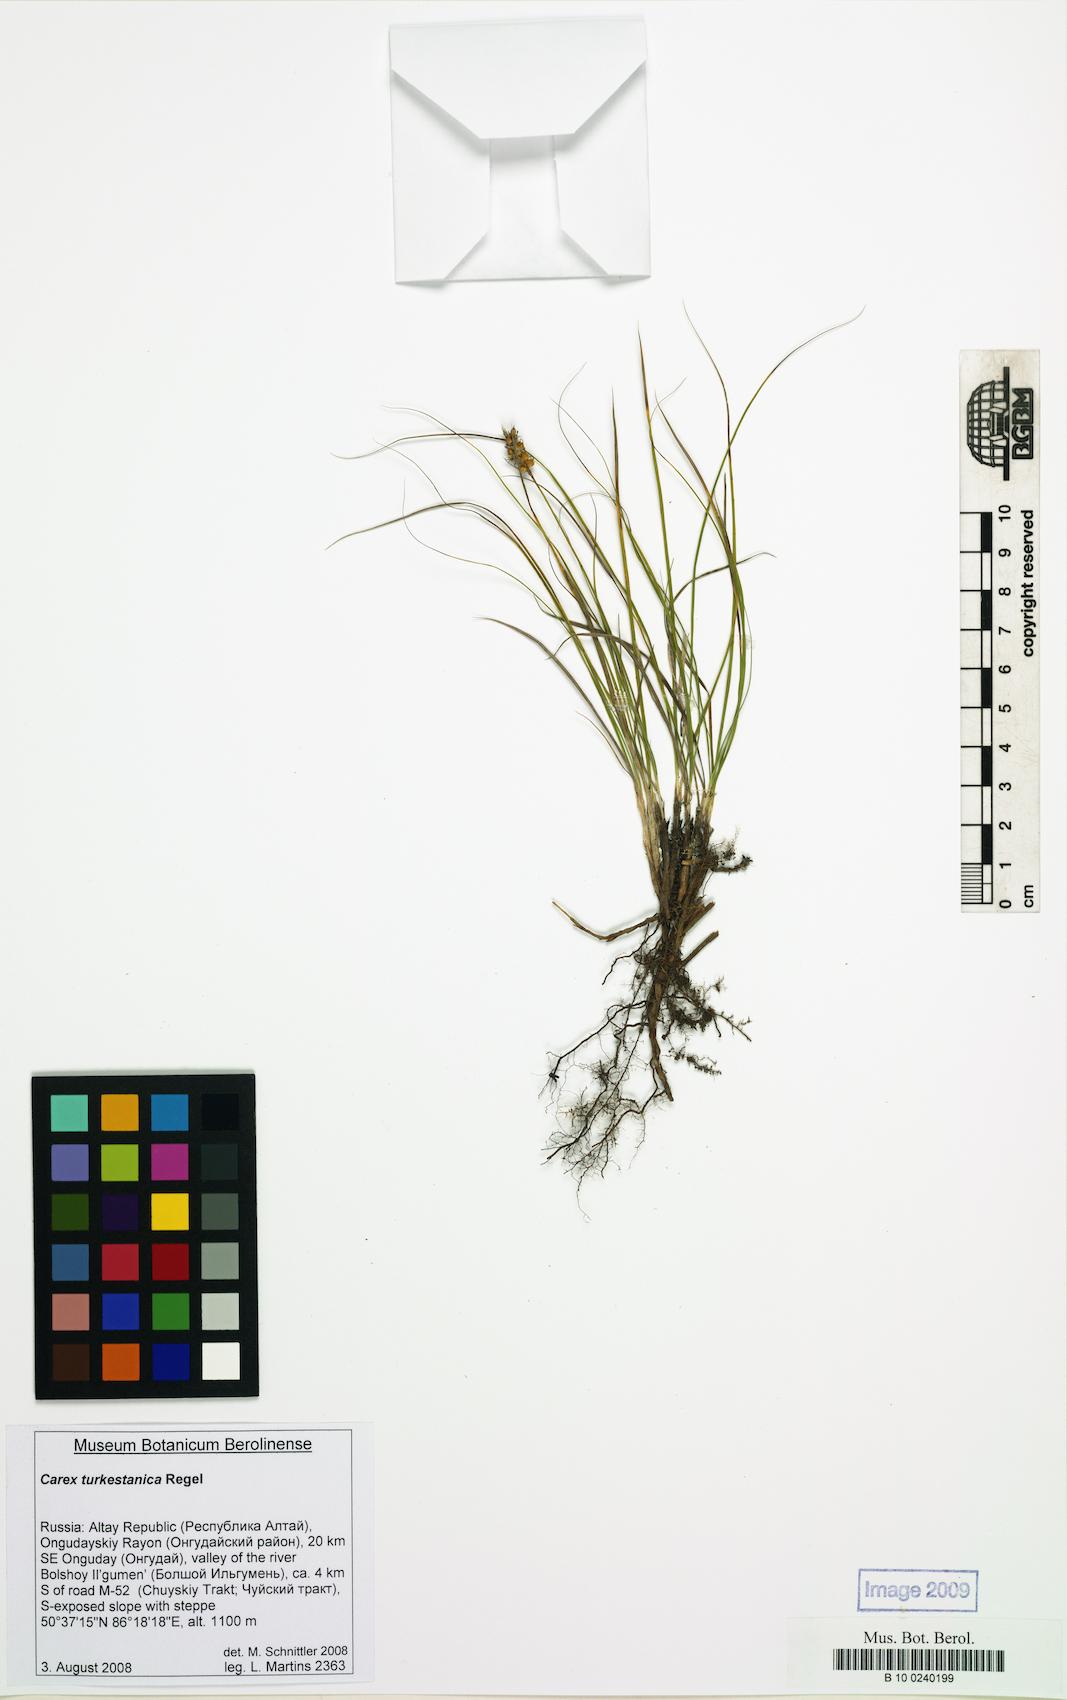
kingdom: Plantae
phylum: Tracheophyta
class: Liliopsida
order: Poales
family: Cyperaceae
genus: Carex
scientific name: Carex turkestanica
